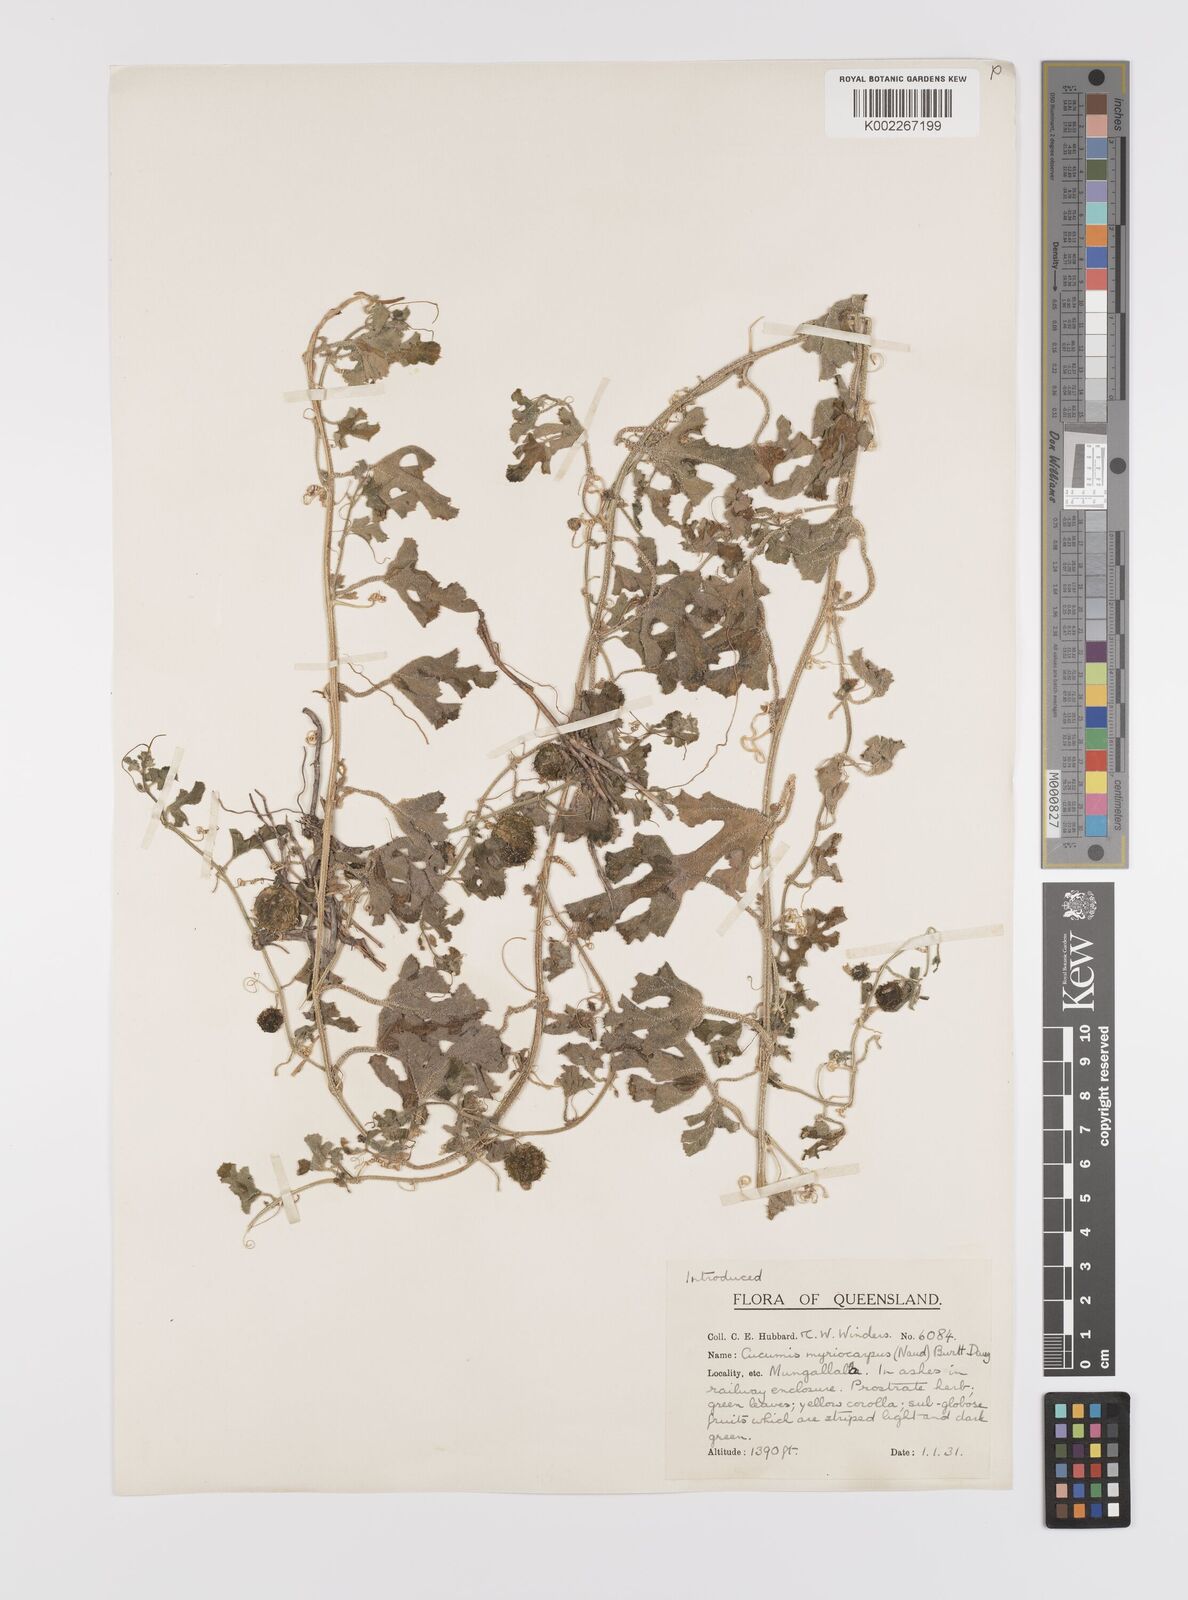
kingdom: Plantae
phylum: Tracheophyta
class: Magnoliopsida
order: Cucurbitales
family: Cucurbitaceae
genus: Cucumis
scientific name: Cucumis myriocarpus
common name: Gooseberry cucumber
